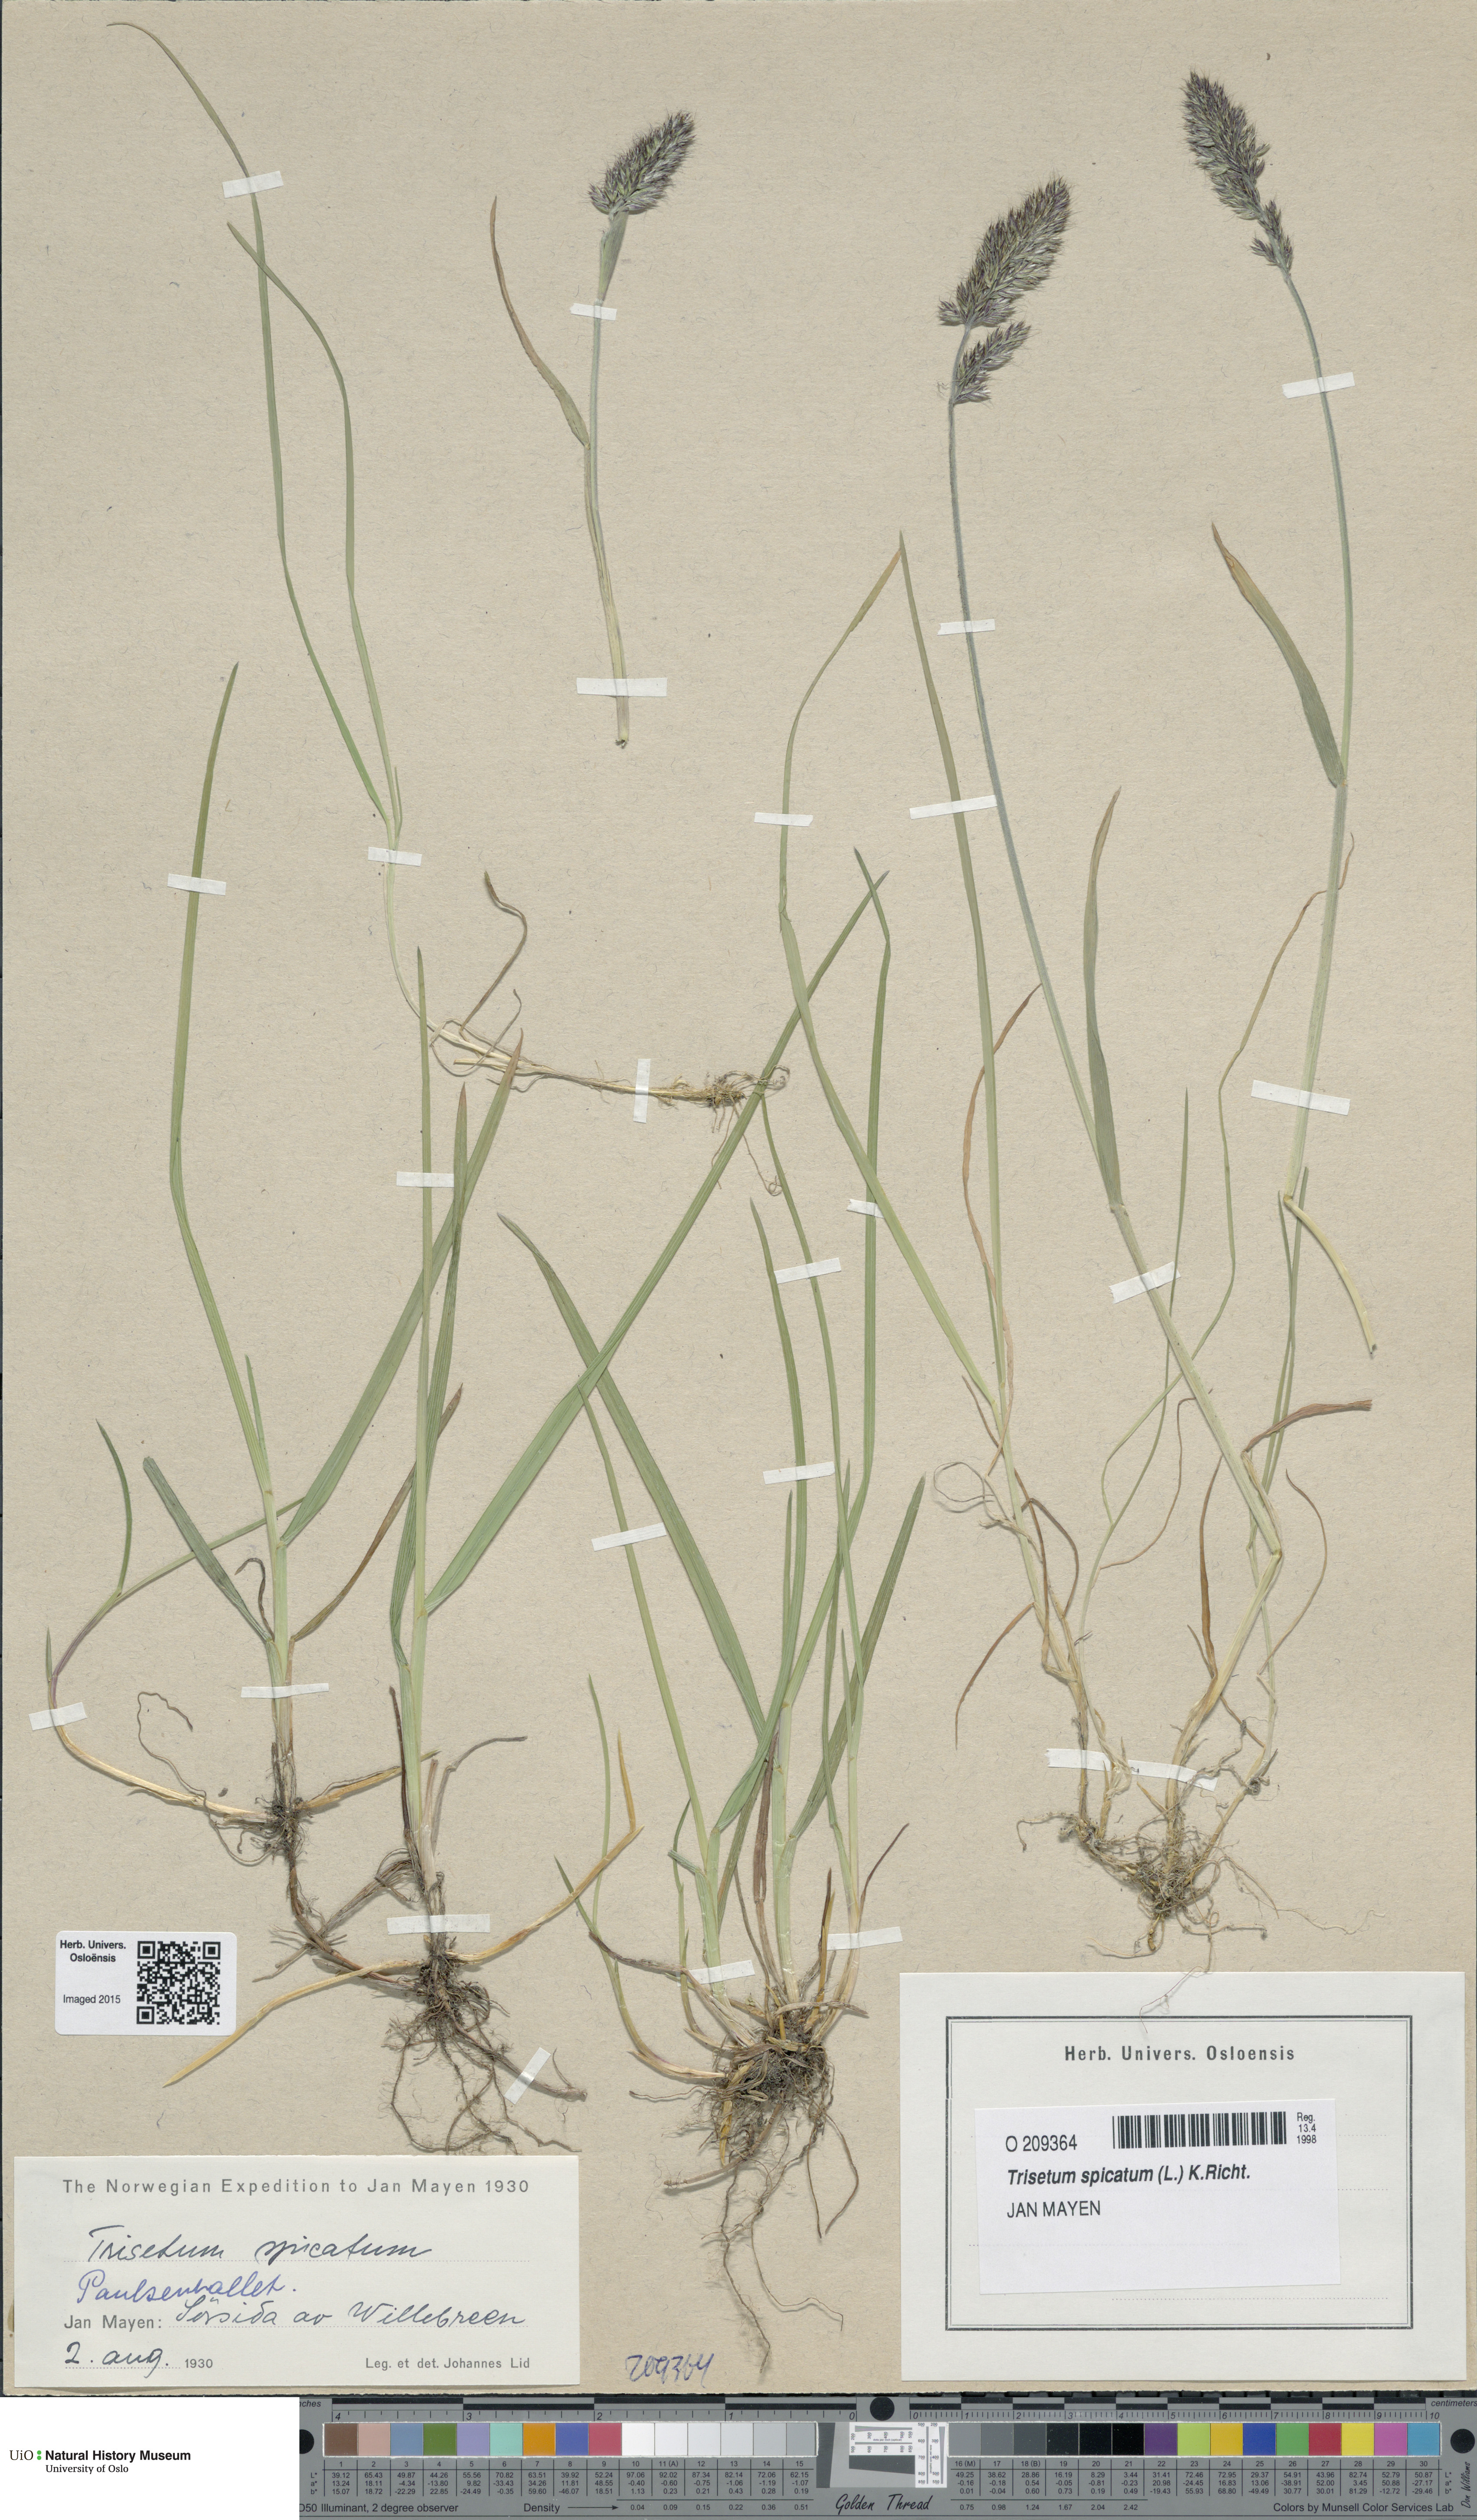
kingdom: Plantae
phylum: Tracheophyta
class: Liliopsida
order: Poales
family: Poaceae
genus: Koeleria
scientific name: Koeleria spicata
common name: Mountain trisetum
